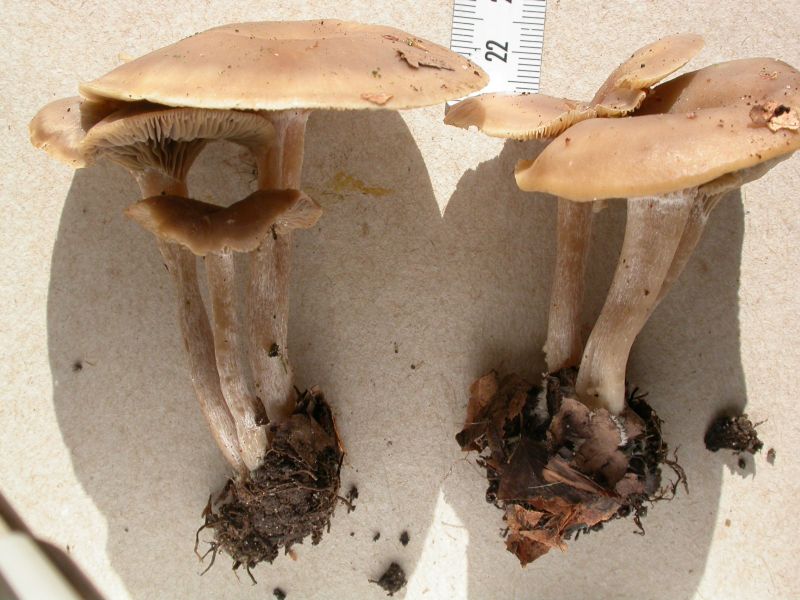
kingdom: Fungi
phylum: Basidiomycota
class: Agaricomycetes
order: Agaricales
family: Tricholomataceae
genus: Clitocybe
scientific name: Clitocybe subspadicea
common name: nitrøs tragthat
